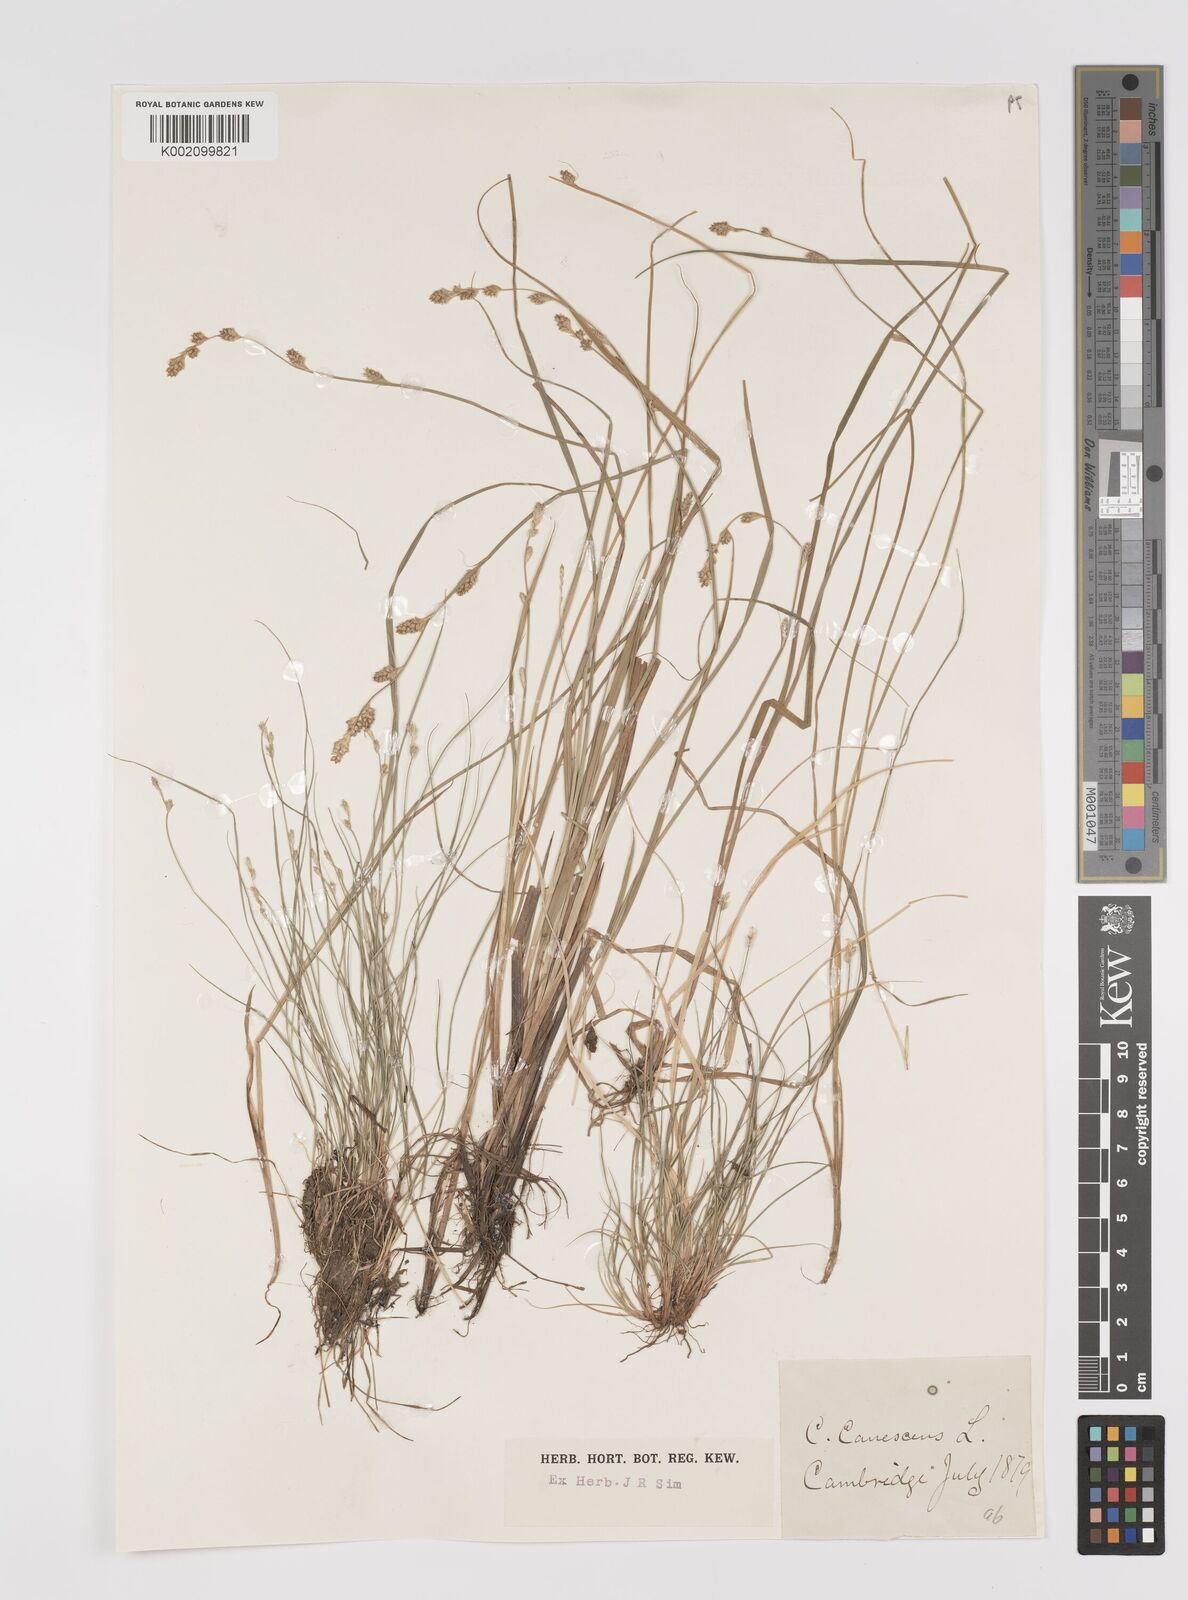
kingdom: Plantae
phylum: Tracheophyta
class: Liliopsida
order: Poales
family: Cyperaceae
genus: Carex
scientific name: Carex curta
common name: White sedge
